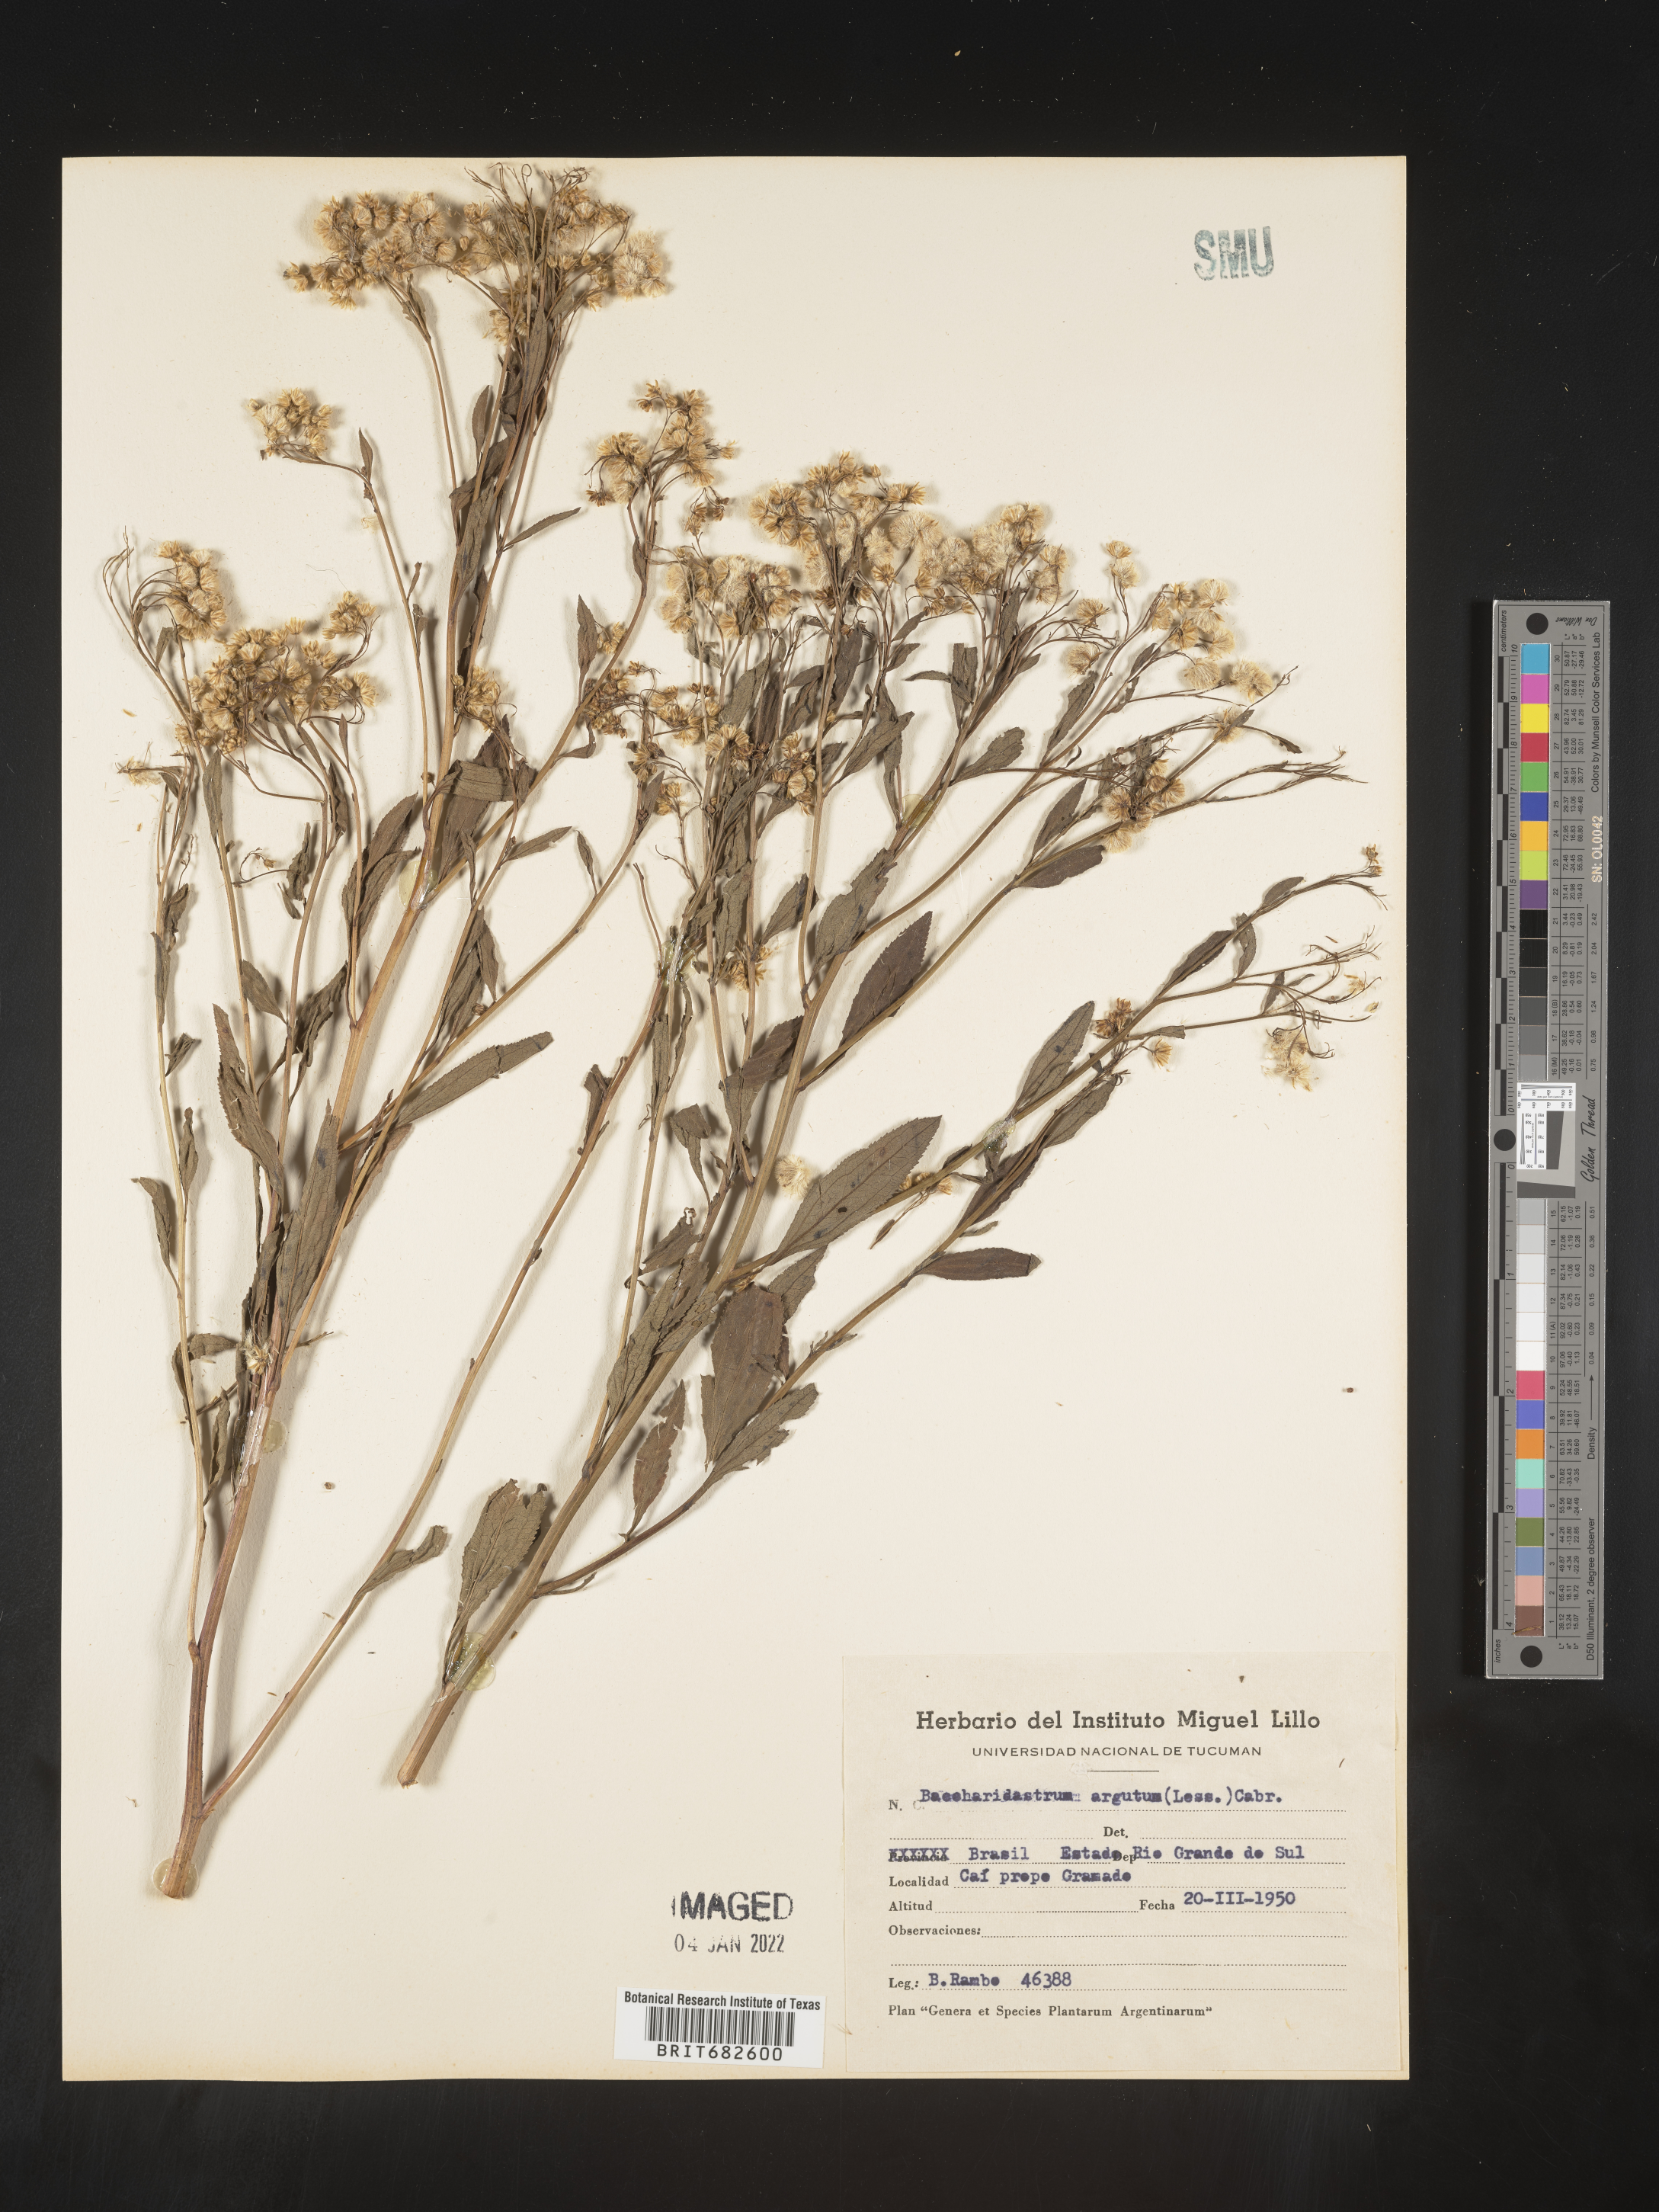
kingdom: Plantae
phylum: Tracheophyta
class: Magnoliopsida
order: Asterales
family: Asteraceae
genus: Baccharis
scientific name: Baccharis
